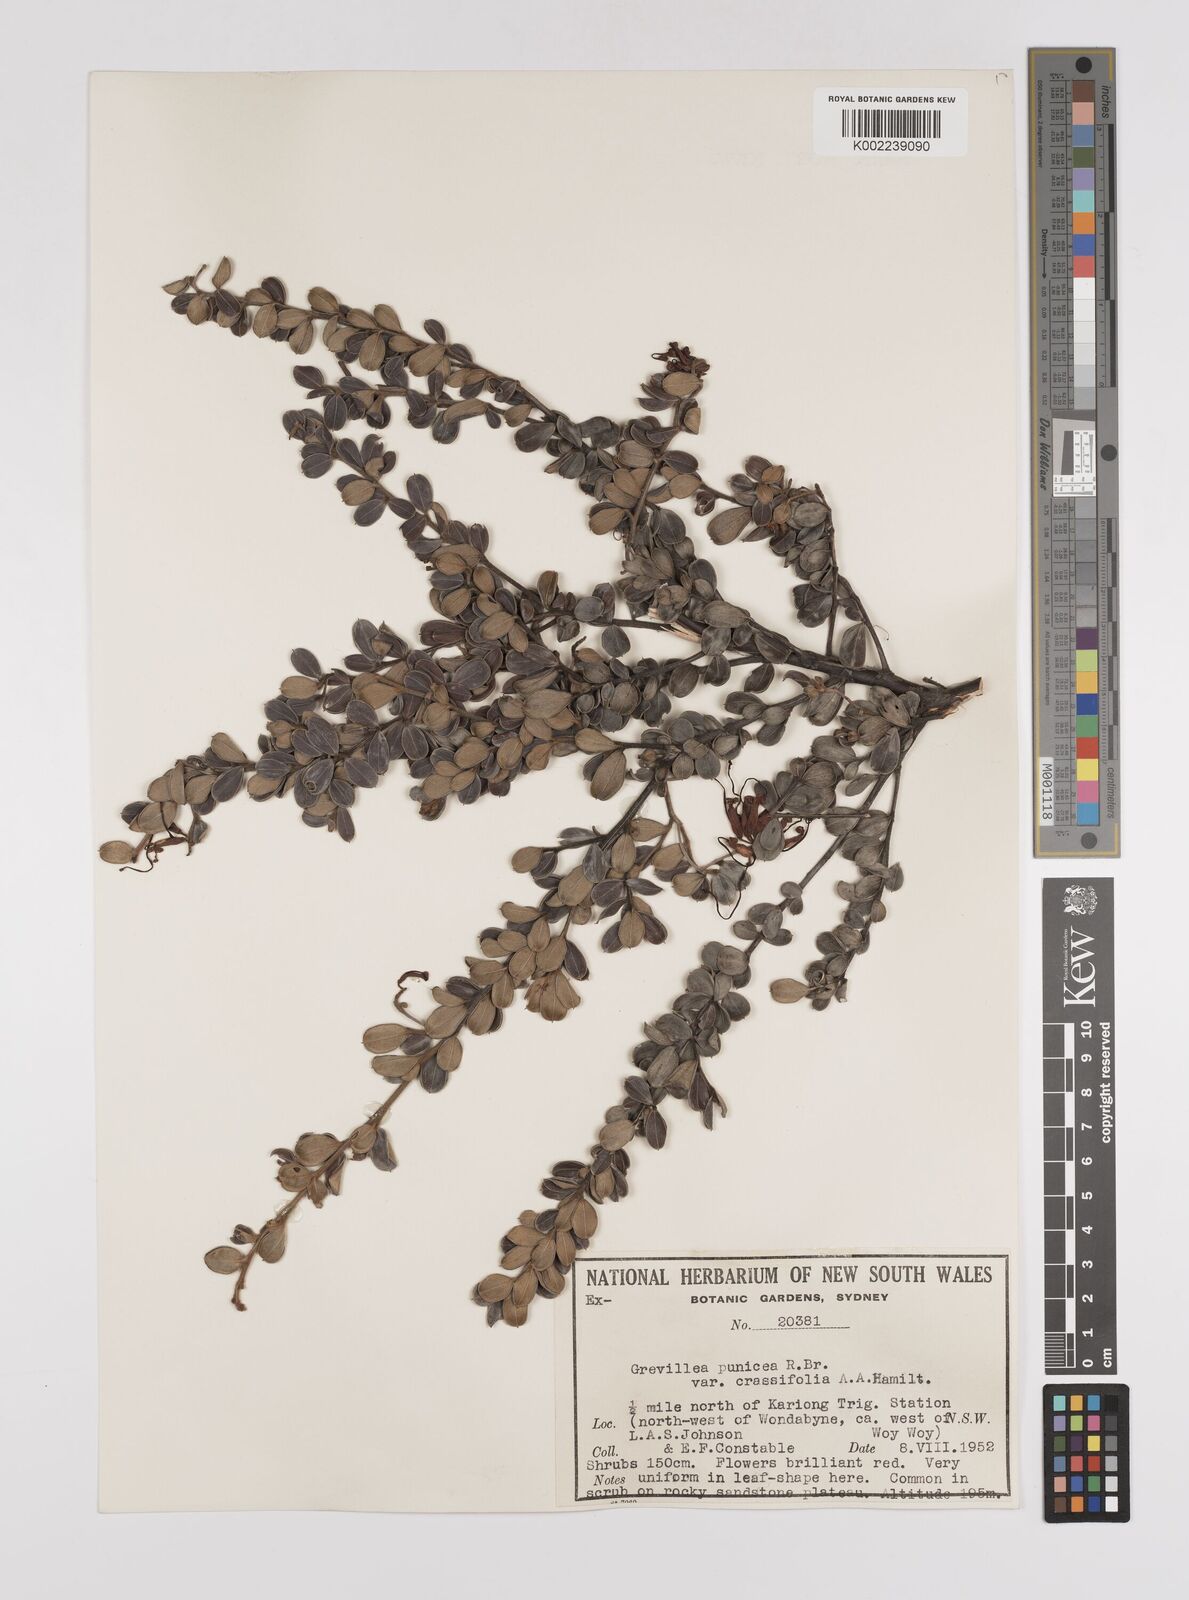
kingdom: Plantae
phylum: Tracheophyta
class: Magnoliopsida
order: Proteales
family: Proteaceae
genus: Grevillea
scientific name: Grevillea speciosa
